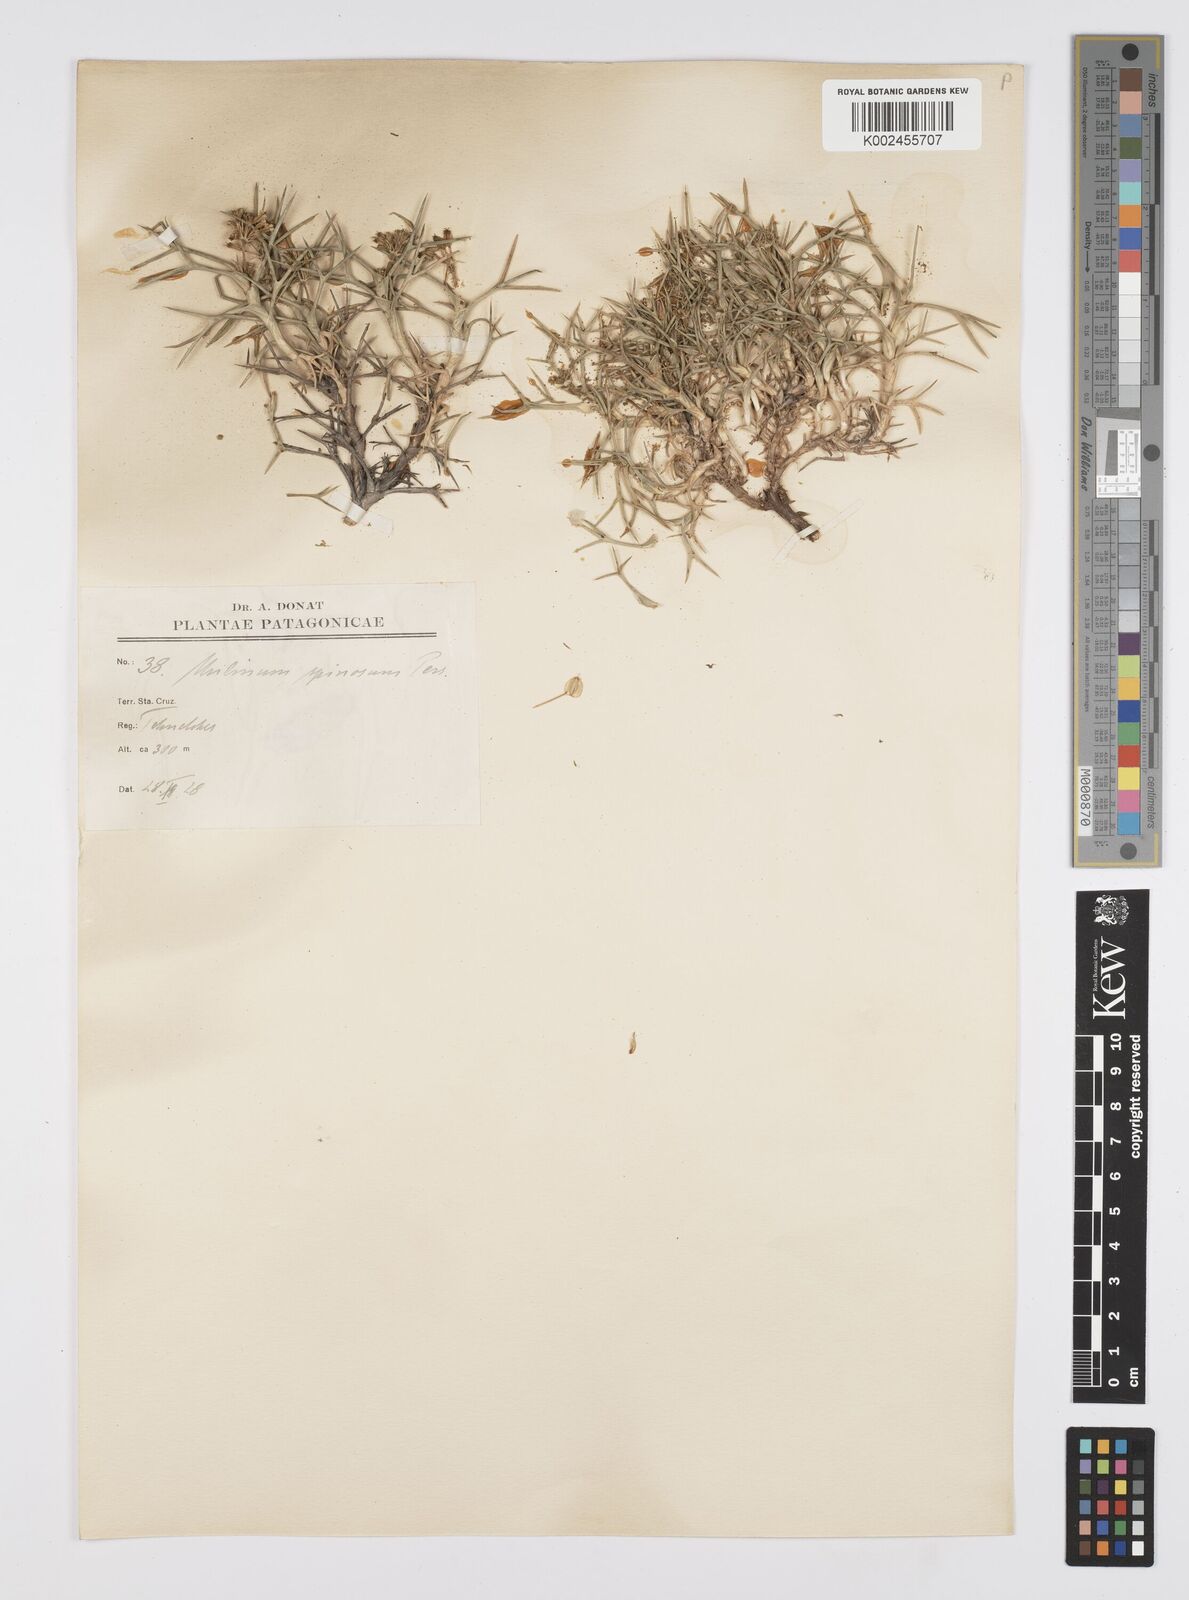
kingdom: Plantae
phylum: Tracheophyta
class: Magnoliopsida
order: Apiales
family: Apiaceae
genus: Azorella
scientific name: Azorella prolifera
